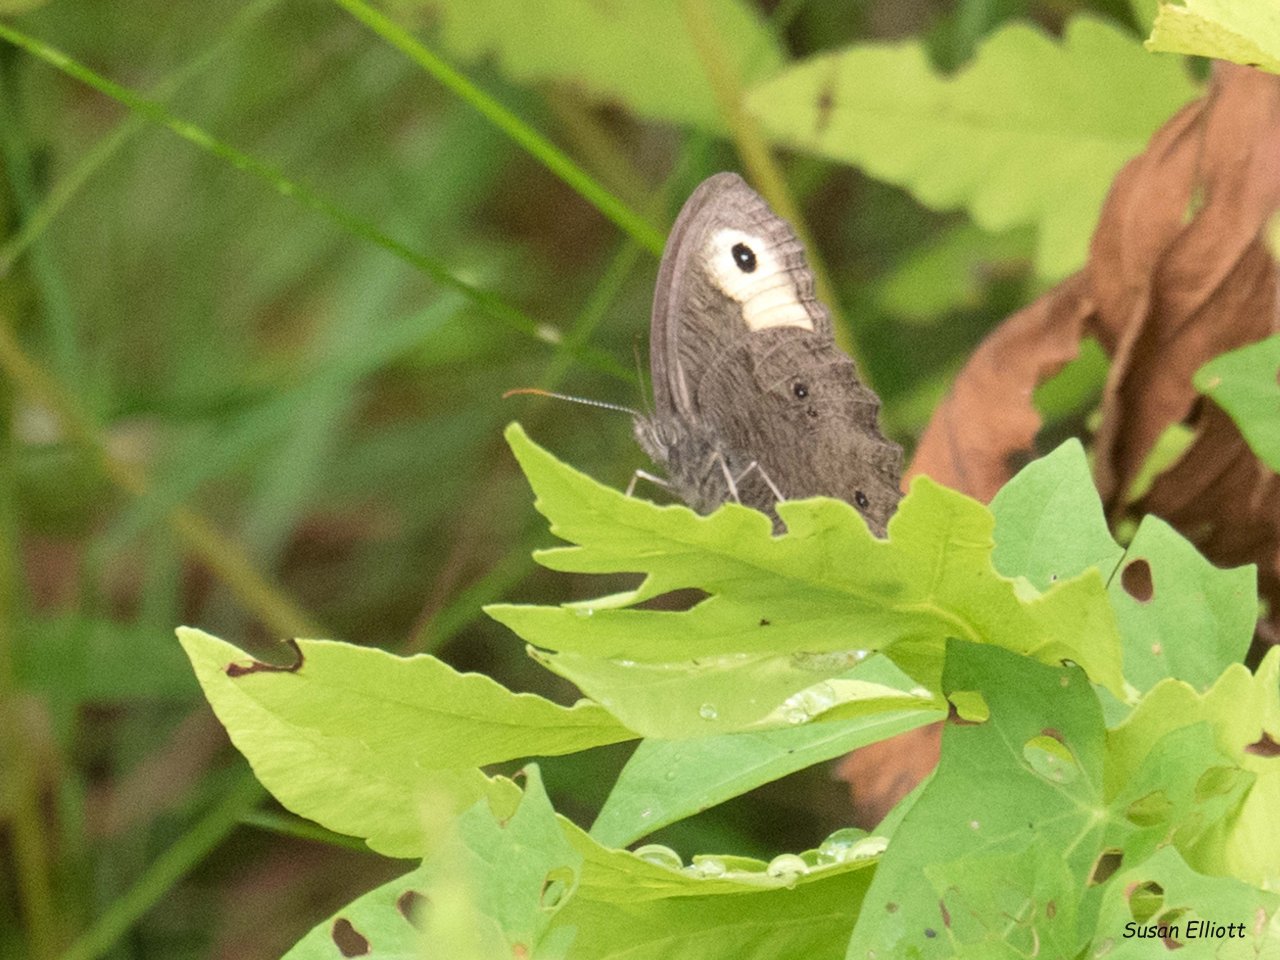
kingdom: Animalia
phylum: Arthropoda
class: Insecta
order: Lepidoptera
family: Nymphalidae
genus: Cercyonis
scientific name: Cercyonis pegala
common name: Common Wood-Nymph
